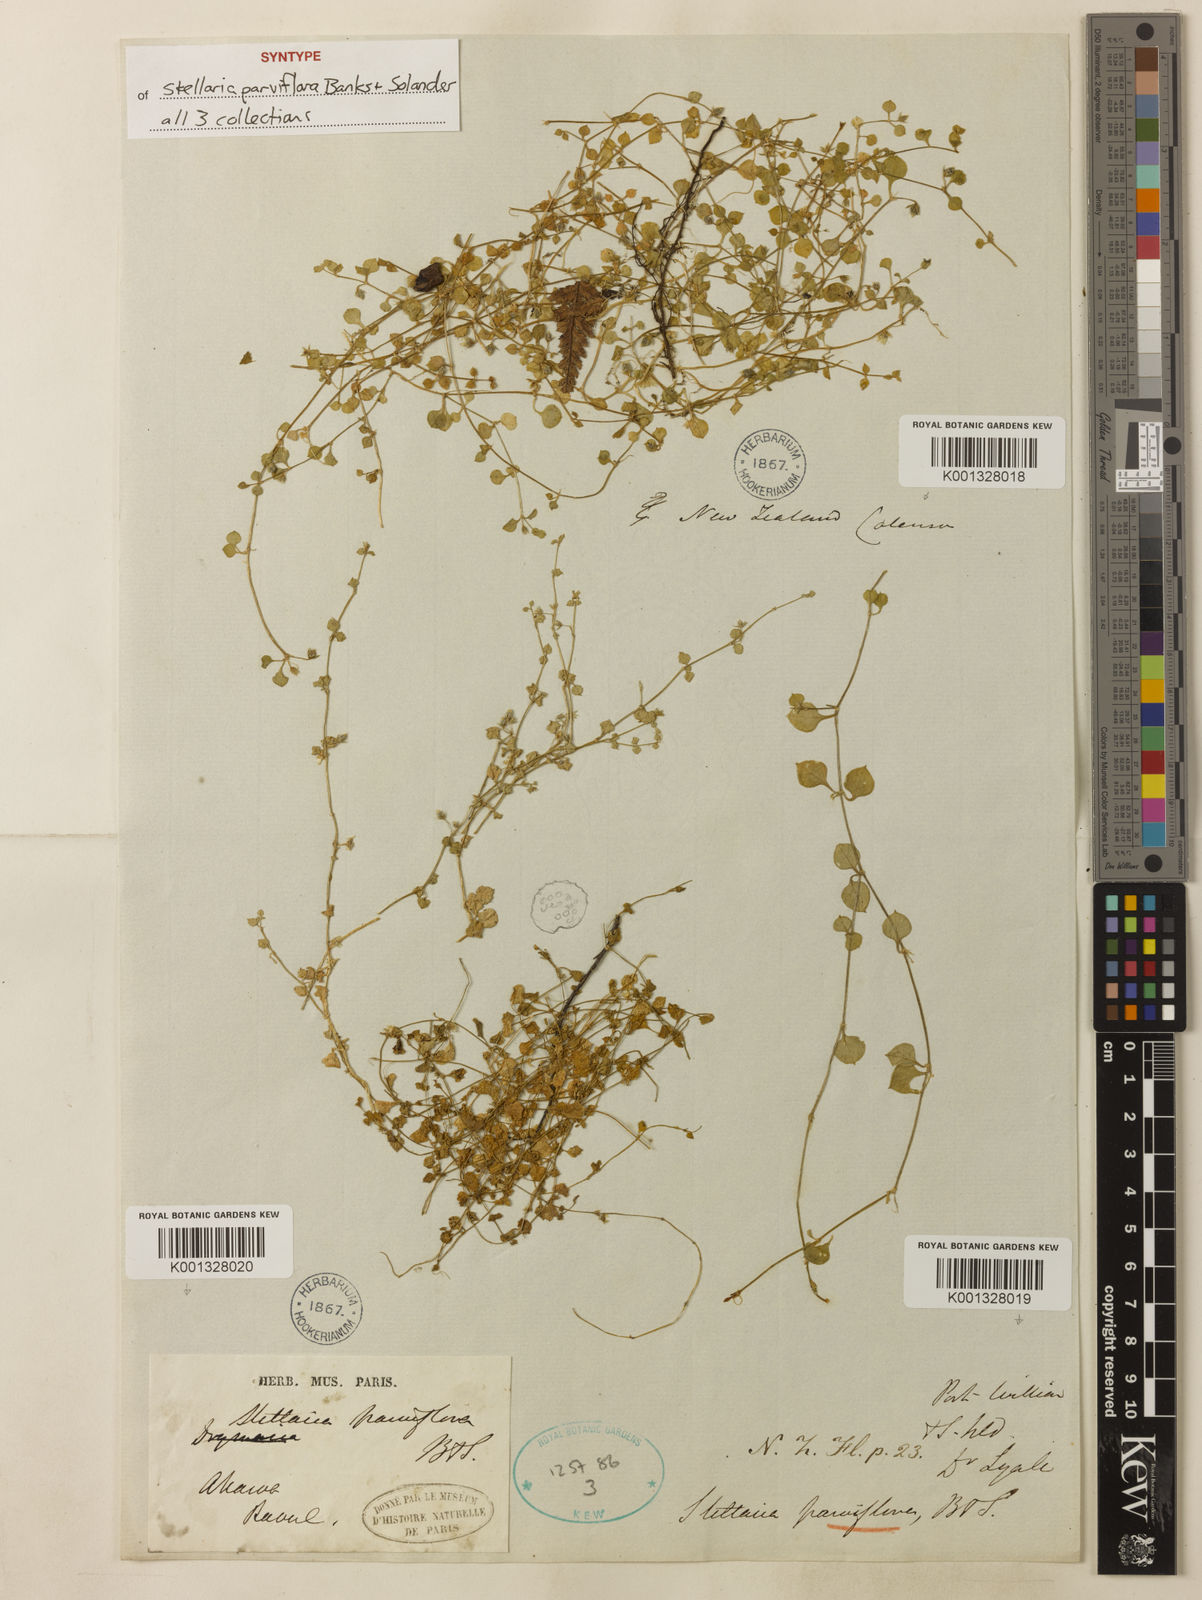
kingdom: Plantae
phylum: Tracheophyta
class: Magnoliopsida
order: Caryophyllales
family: Caryophyllaceae
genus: Stellaria
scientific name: Stellaria parviflora
